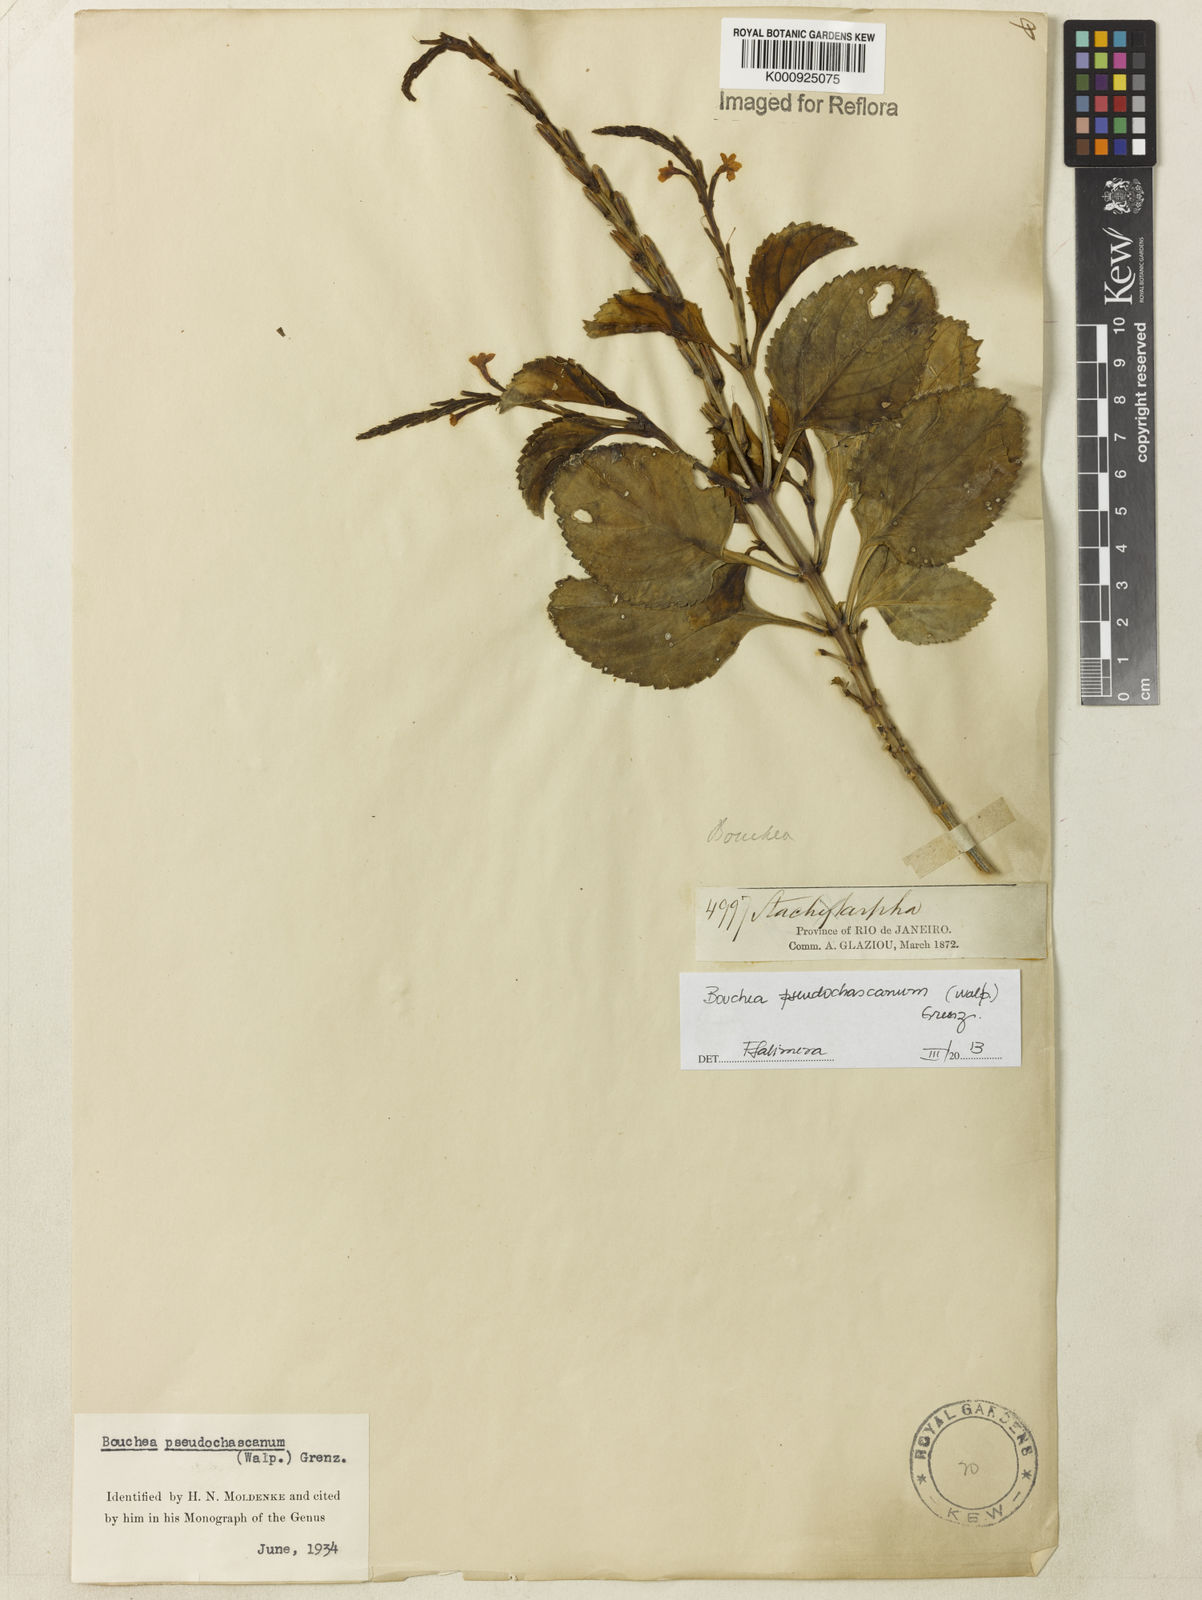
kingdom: Plantae
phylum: Tracheophyta
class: Magnoliopsida
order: Lamiales
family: Verbenaceae
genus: Bouchea
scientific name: Bouchea pseudochascanum
